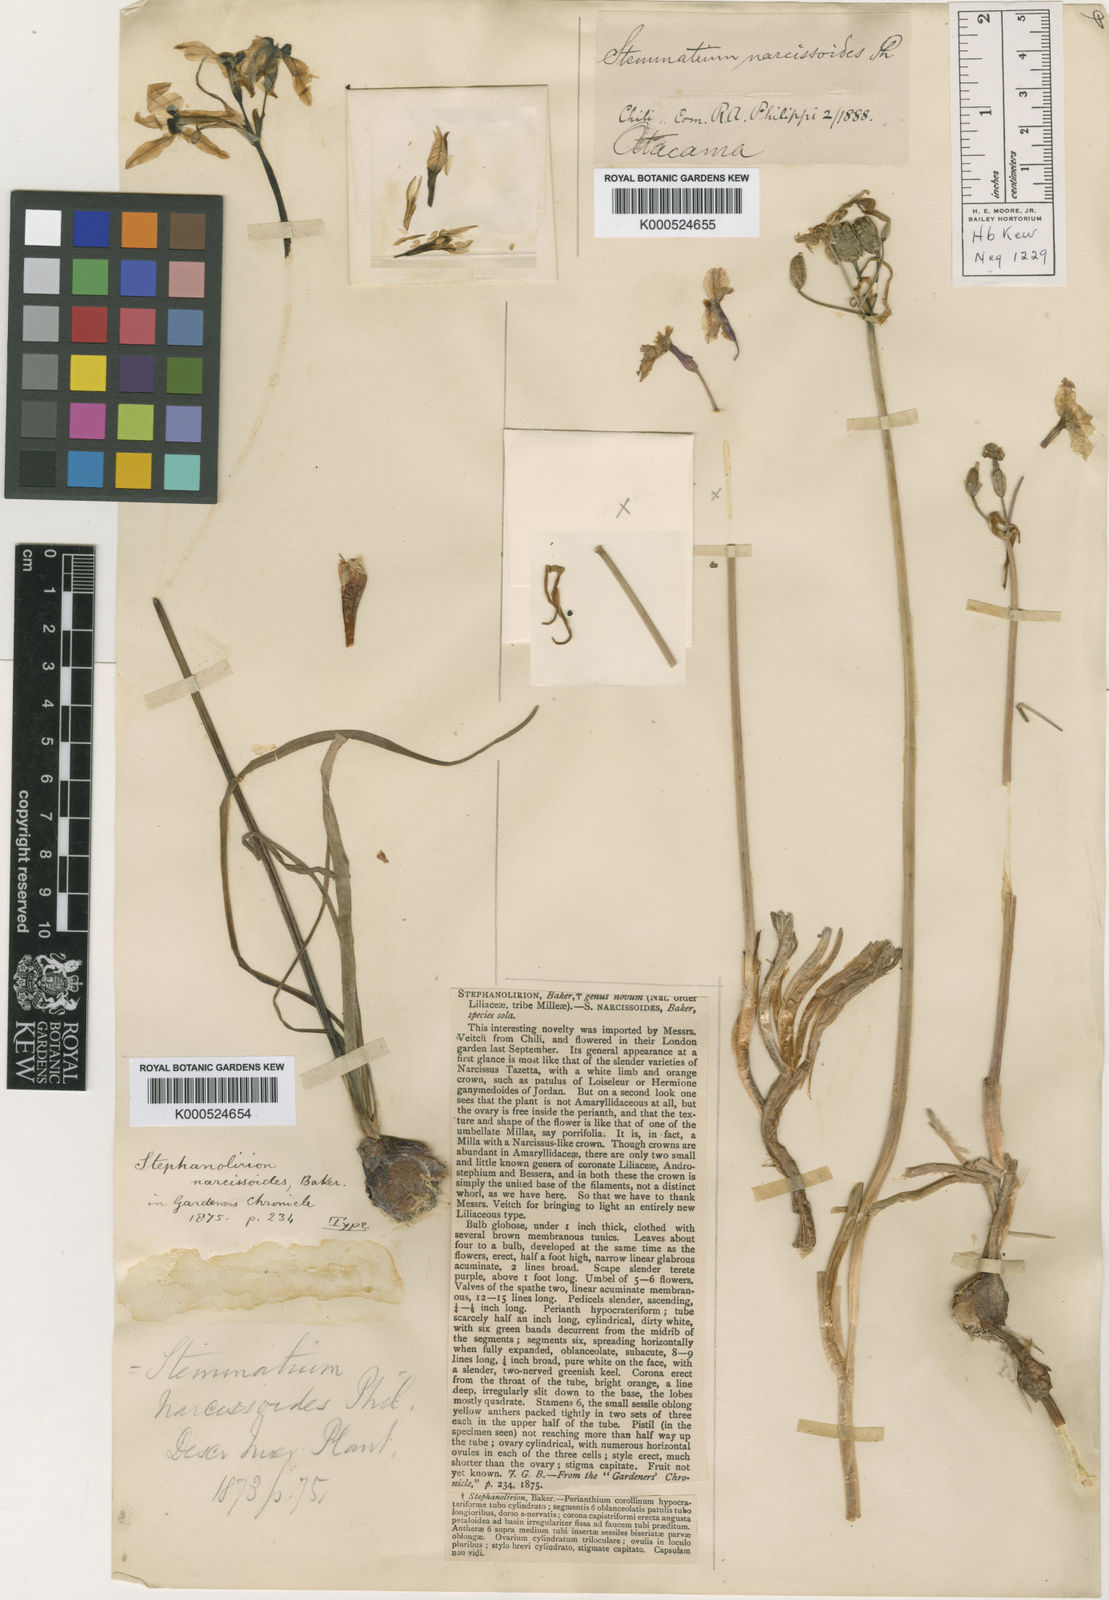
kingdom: Plantae
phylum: Tracheophyta
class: Liliopsida
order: Asparagales
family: Amaryllidaceae
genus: Leucocoryne
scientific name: Leucocoryne narcissoides
